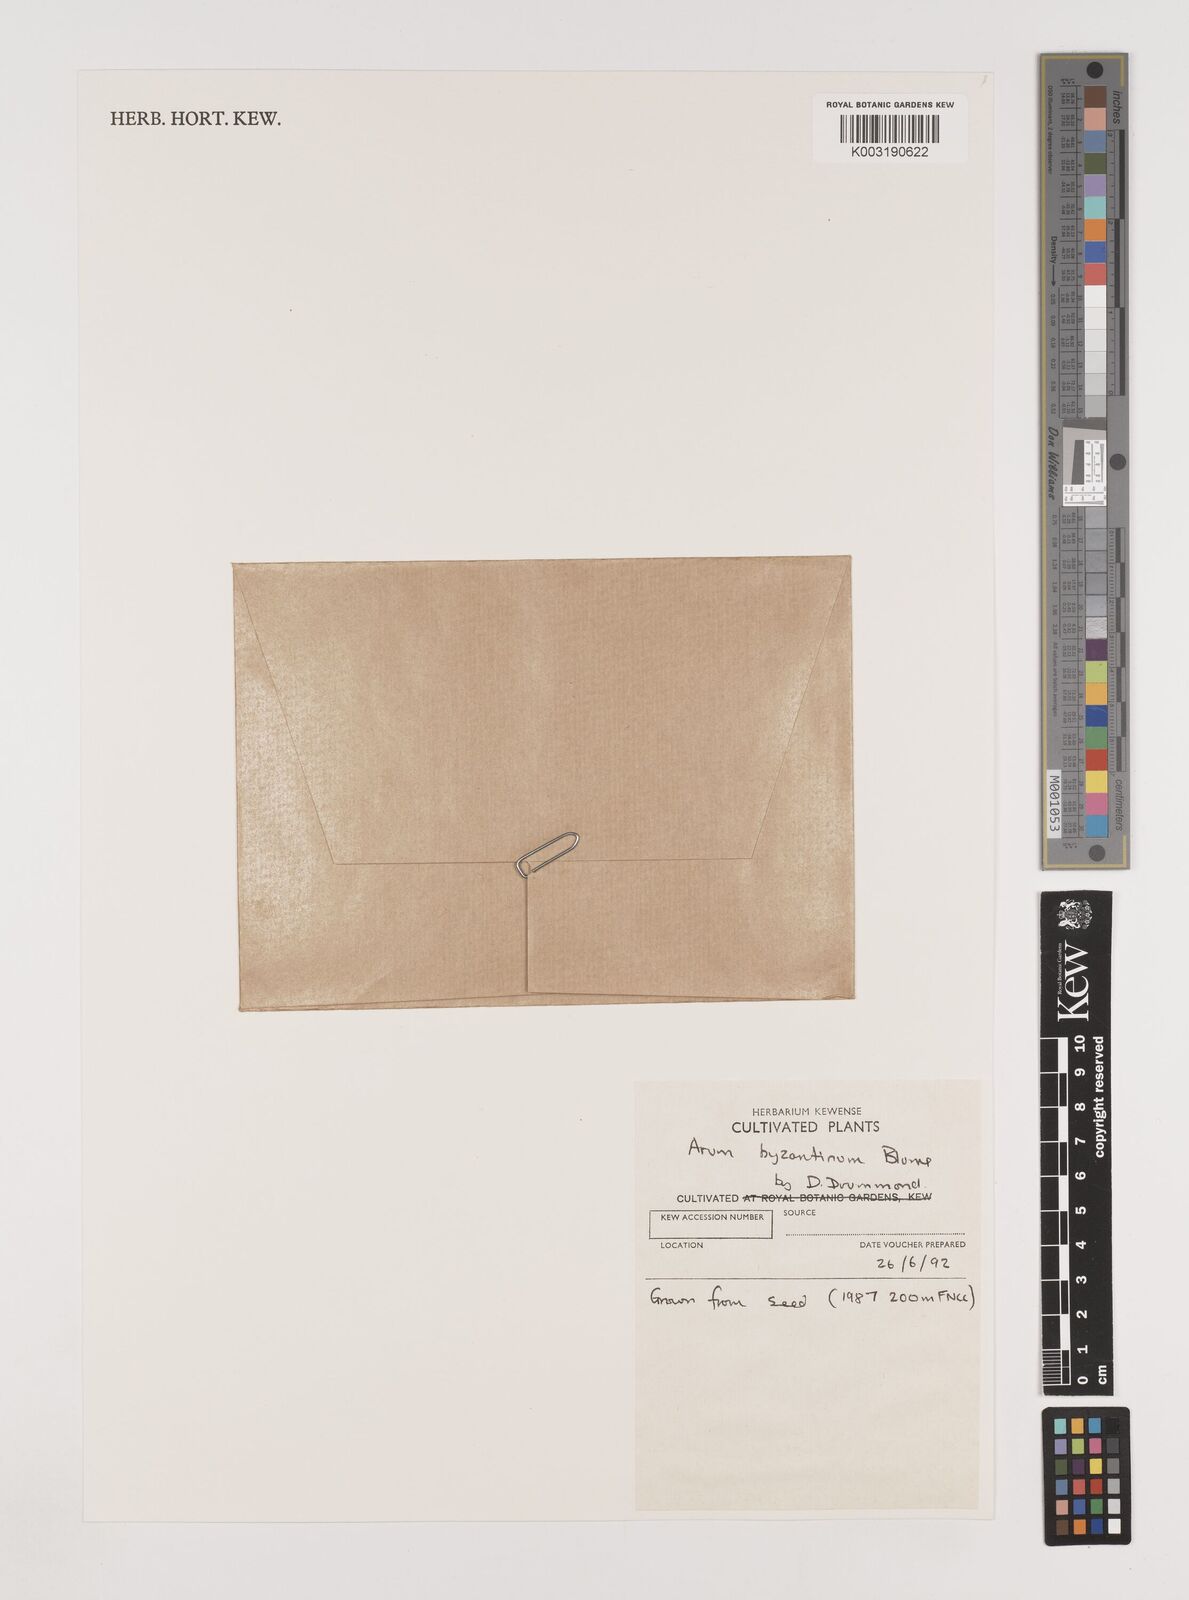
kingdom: Plantae
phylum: Tracheophyta
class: Liliopsida
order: Alismatales
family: Araceae
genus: Arum
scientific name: Arum maculatum
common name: Lords-and-ladies
